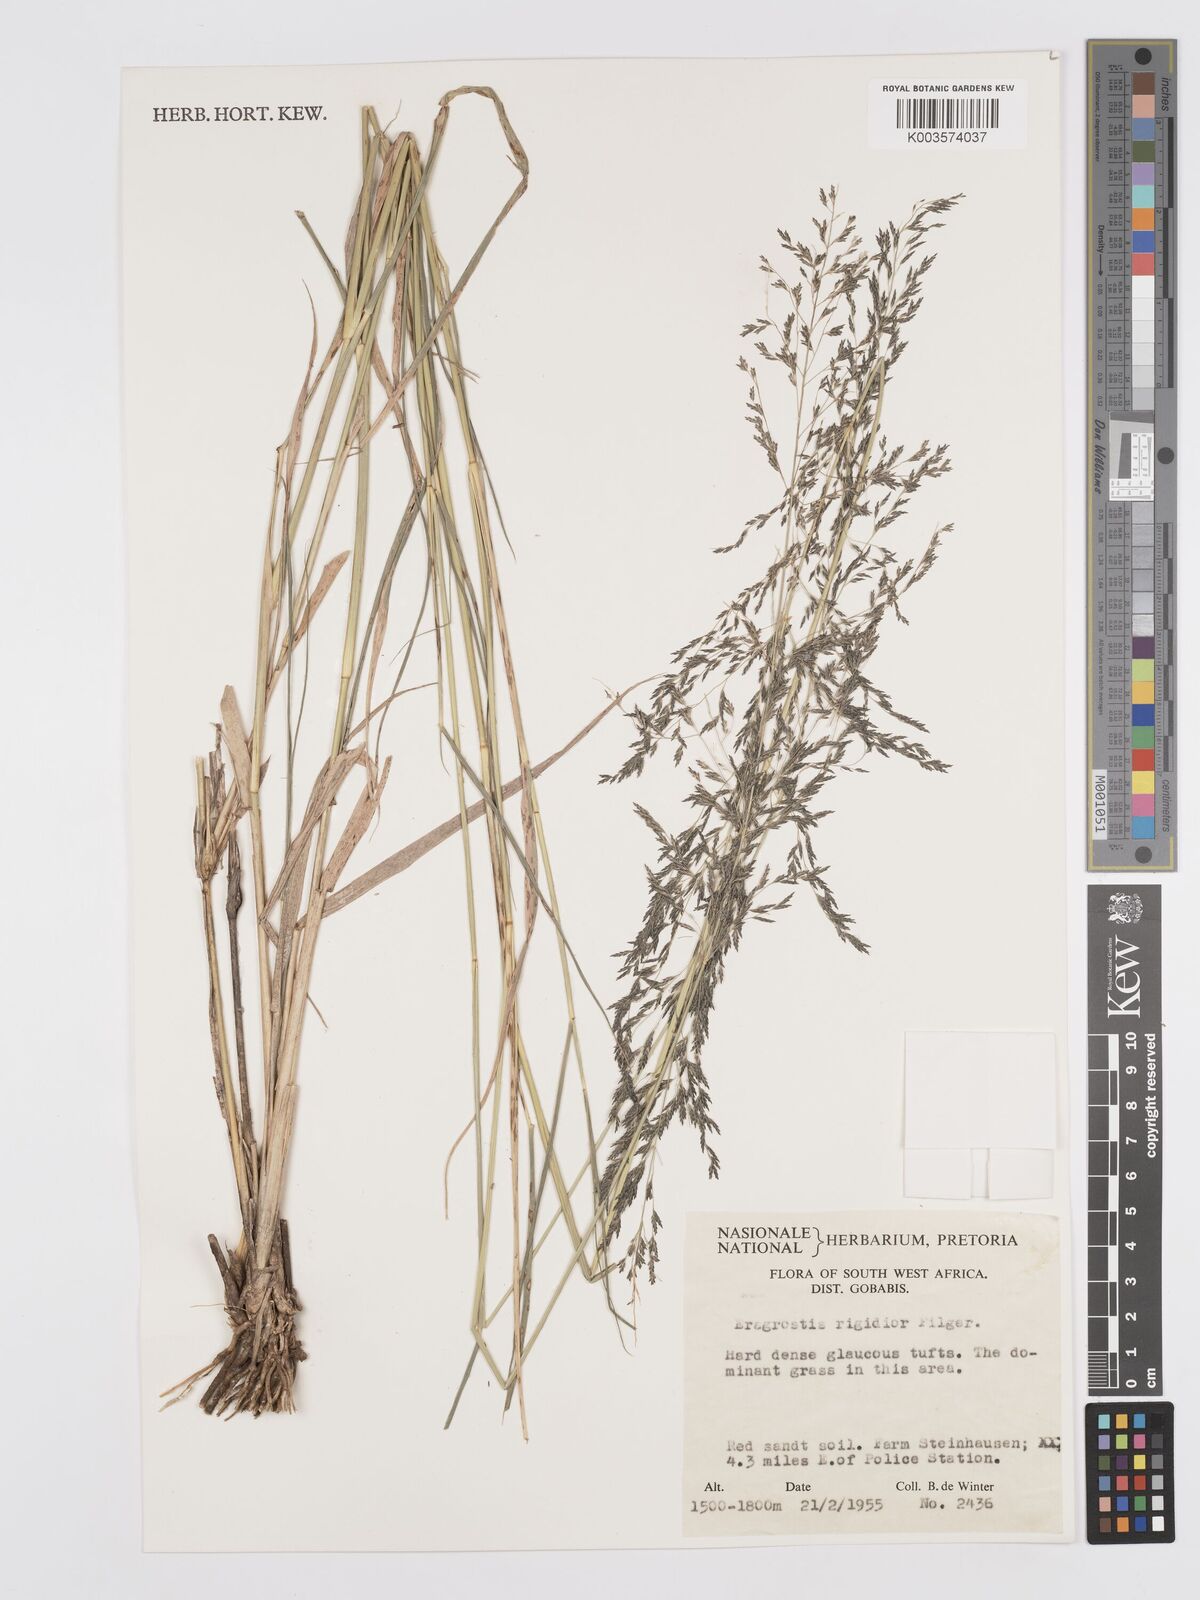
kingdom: Plantae
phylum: Tracheophyta
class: Liliopsida
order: Poales
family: Poaceae
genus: Eragrostis
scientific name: Eragrostis cylindriflora
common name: Cylinderflower lovegrass
